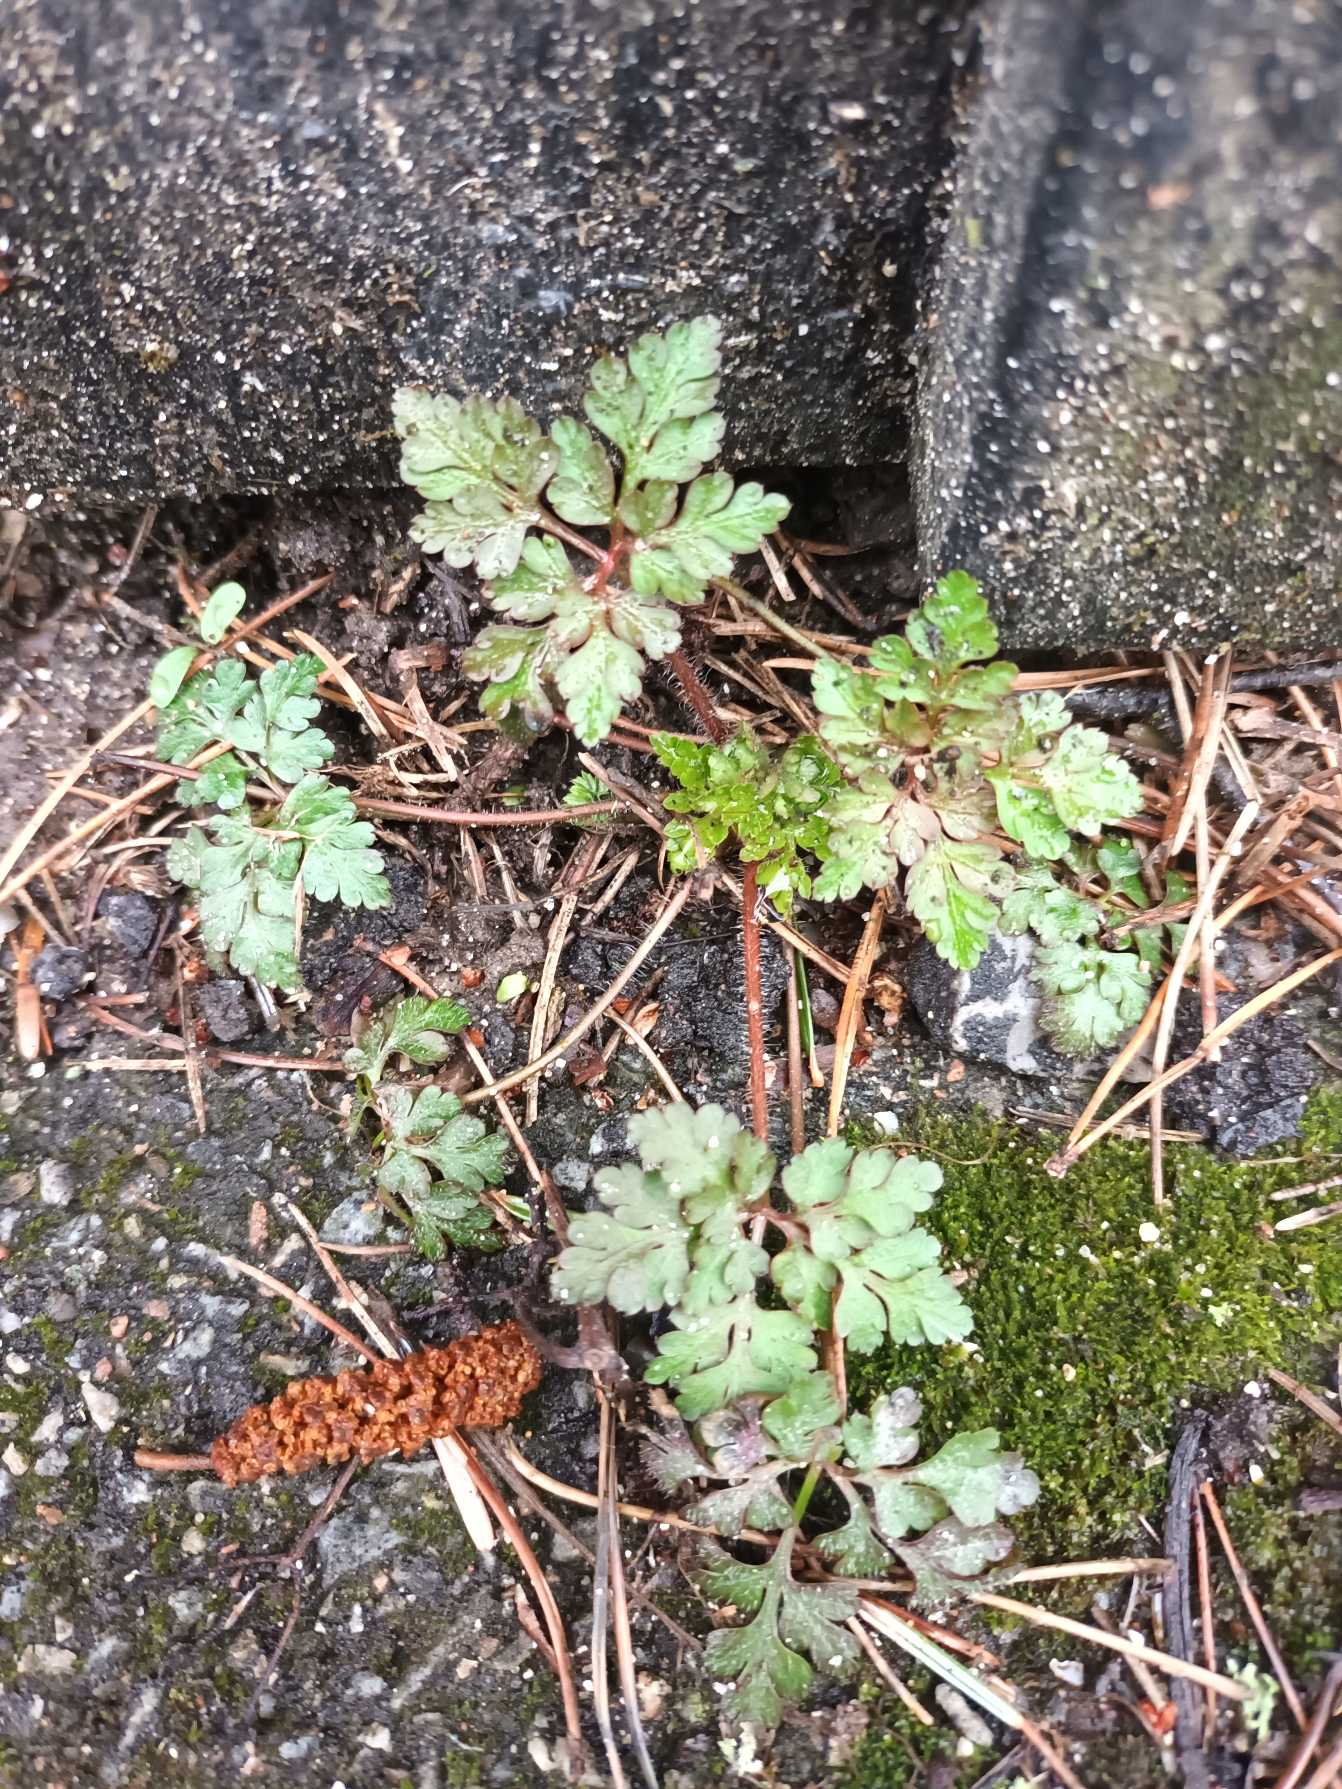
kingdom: Plantae
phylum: Tracheophyta
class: Magnoliopsida
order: Geraniales
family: Geraniaceae
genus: Geranium
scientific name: Geranium robertianum
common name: Stinkende storkenæb
